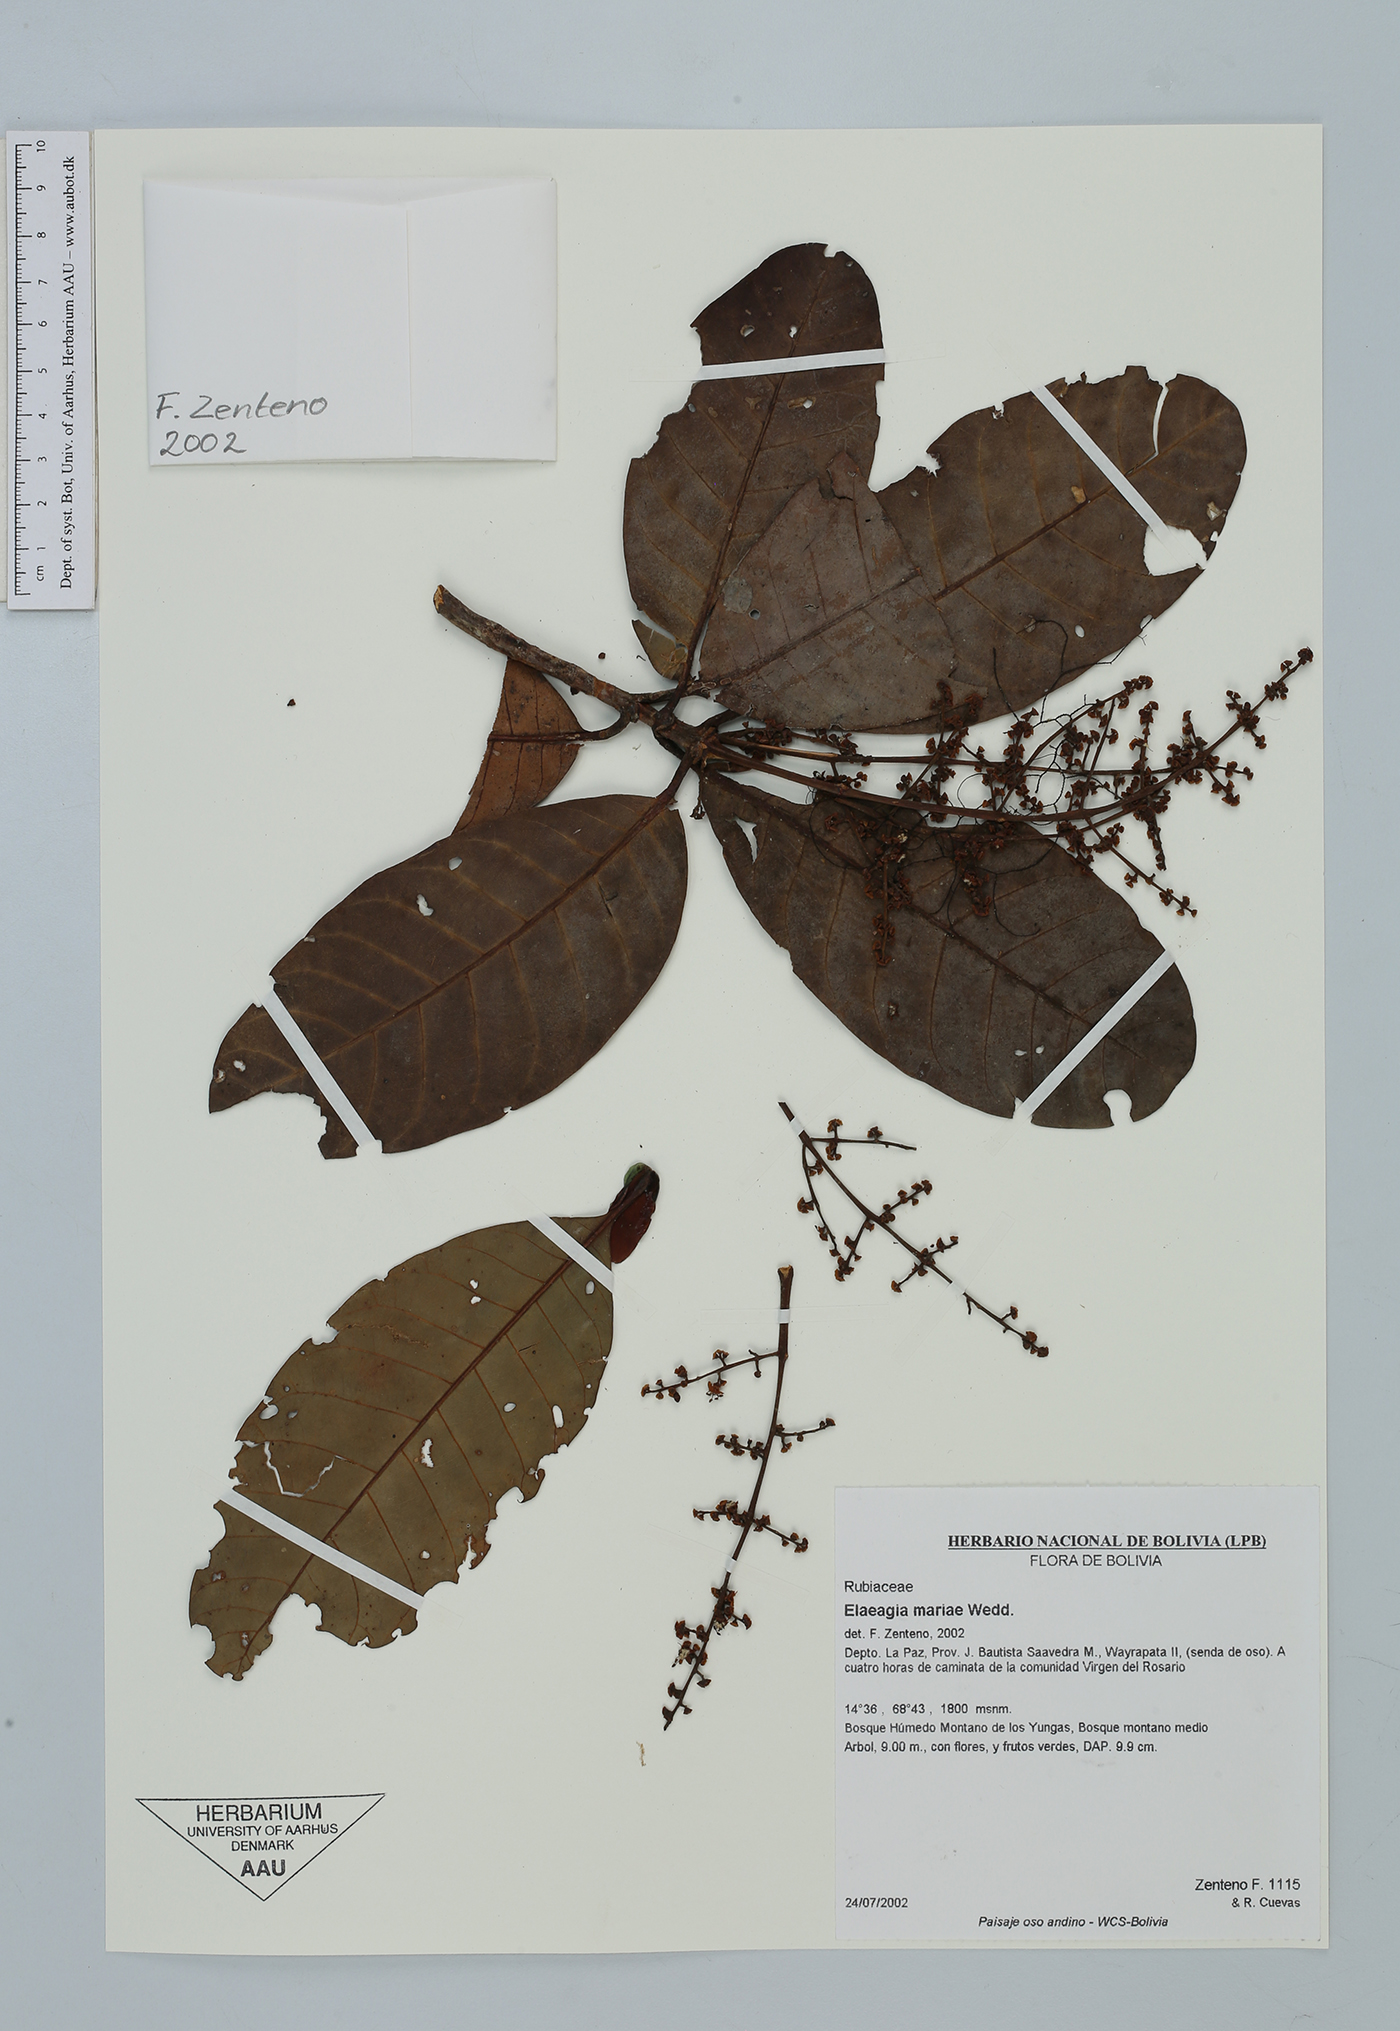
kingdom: Plantae
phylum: Tracheophyta
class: Magnoliopsida
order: Gentianales
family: Rubiaceae
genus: Elaeagia
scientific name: Elaeagia mariae
